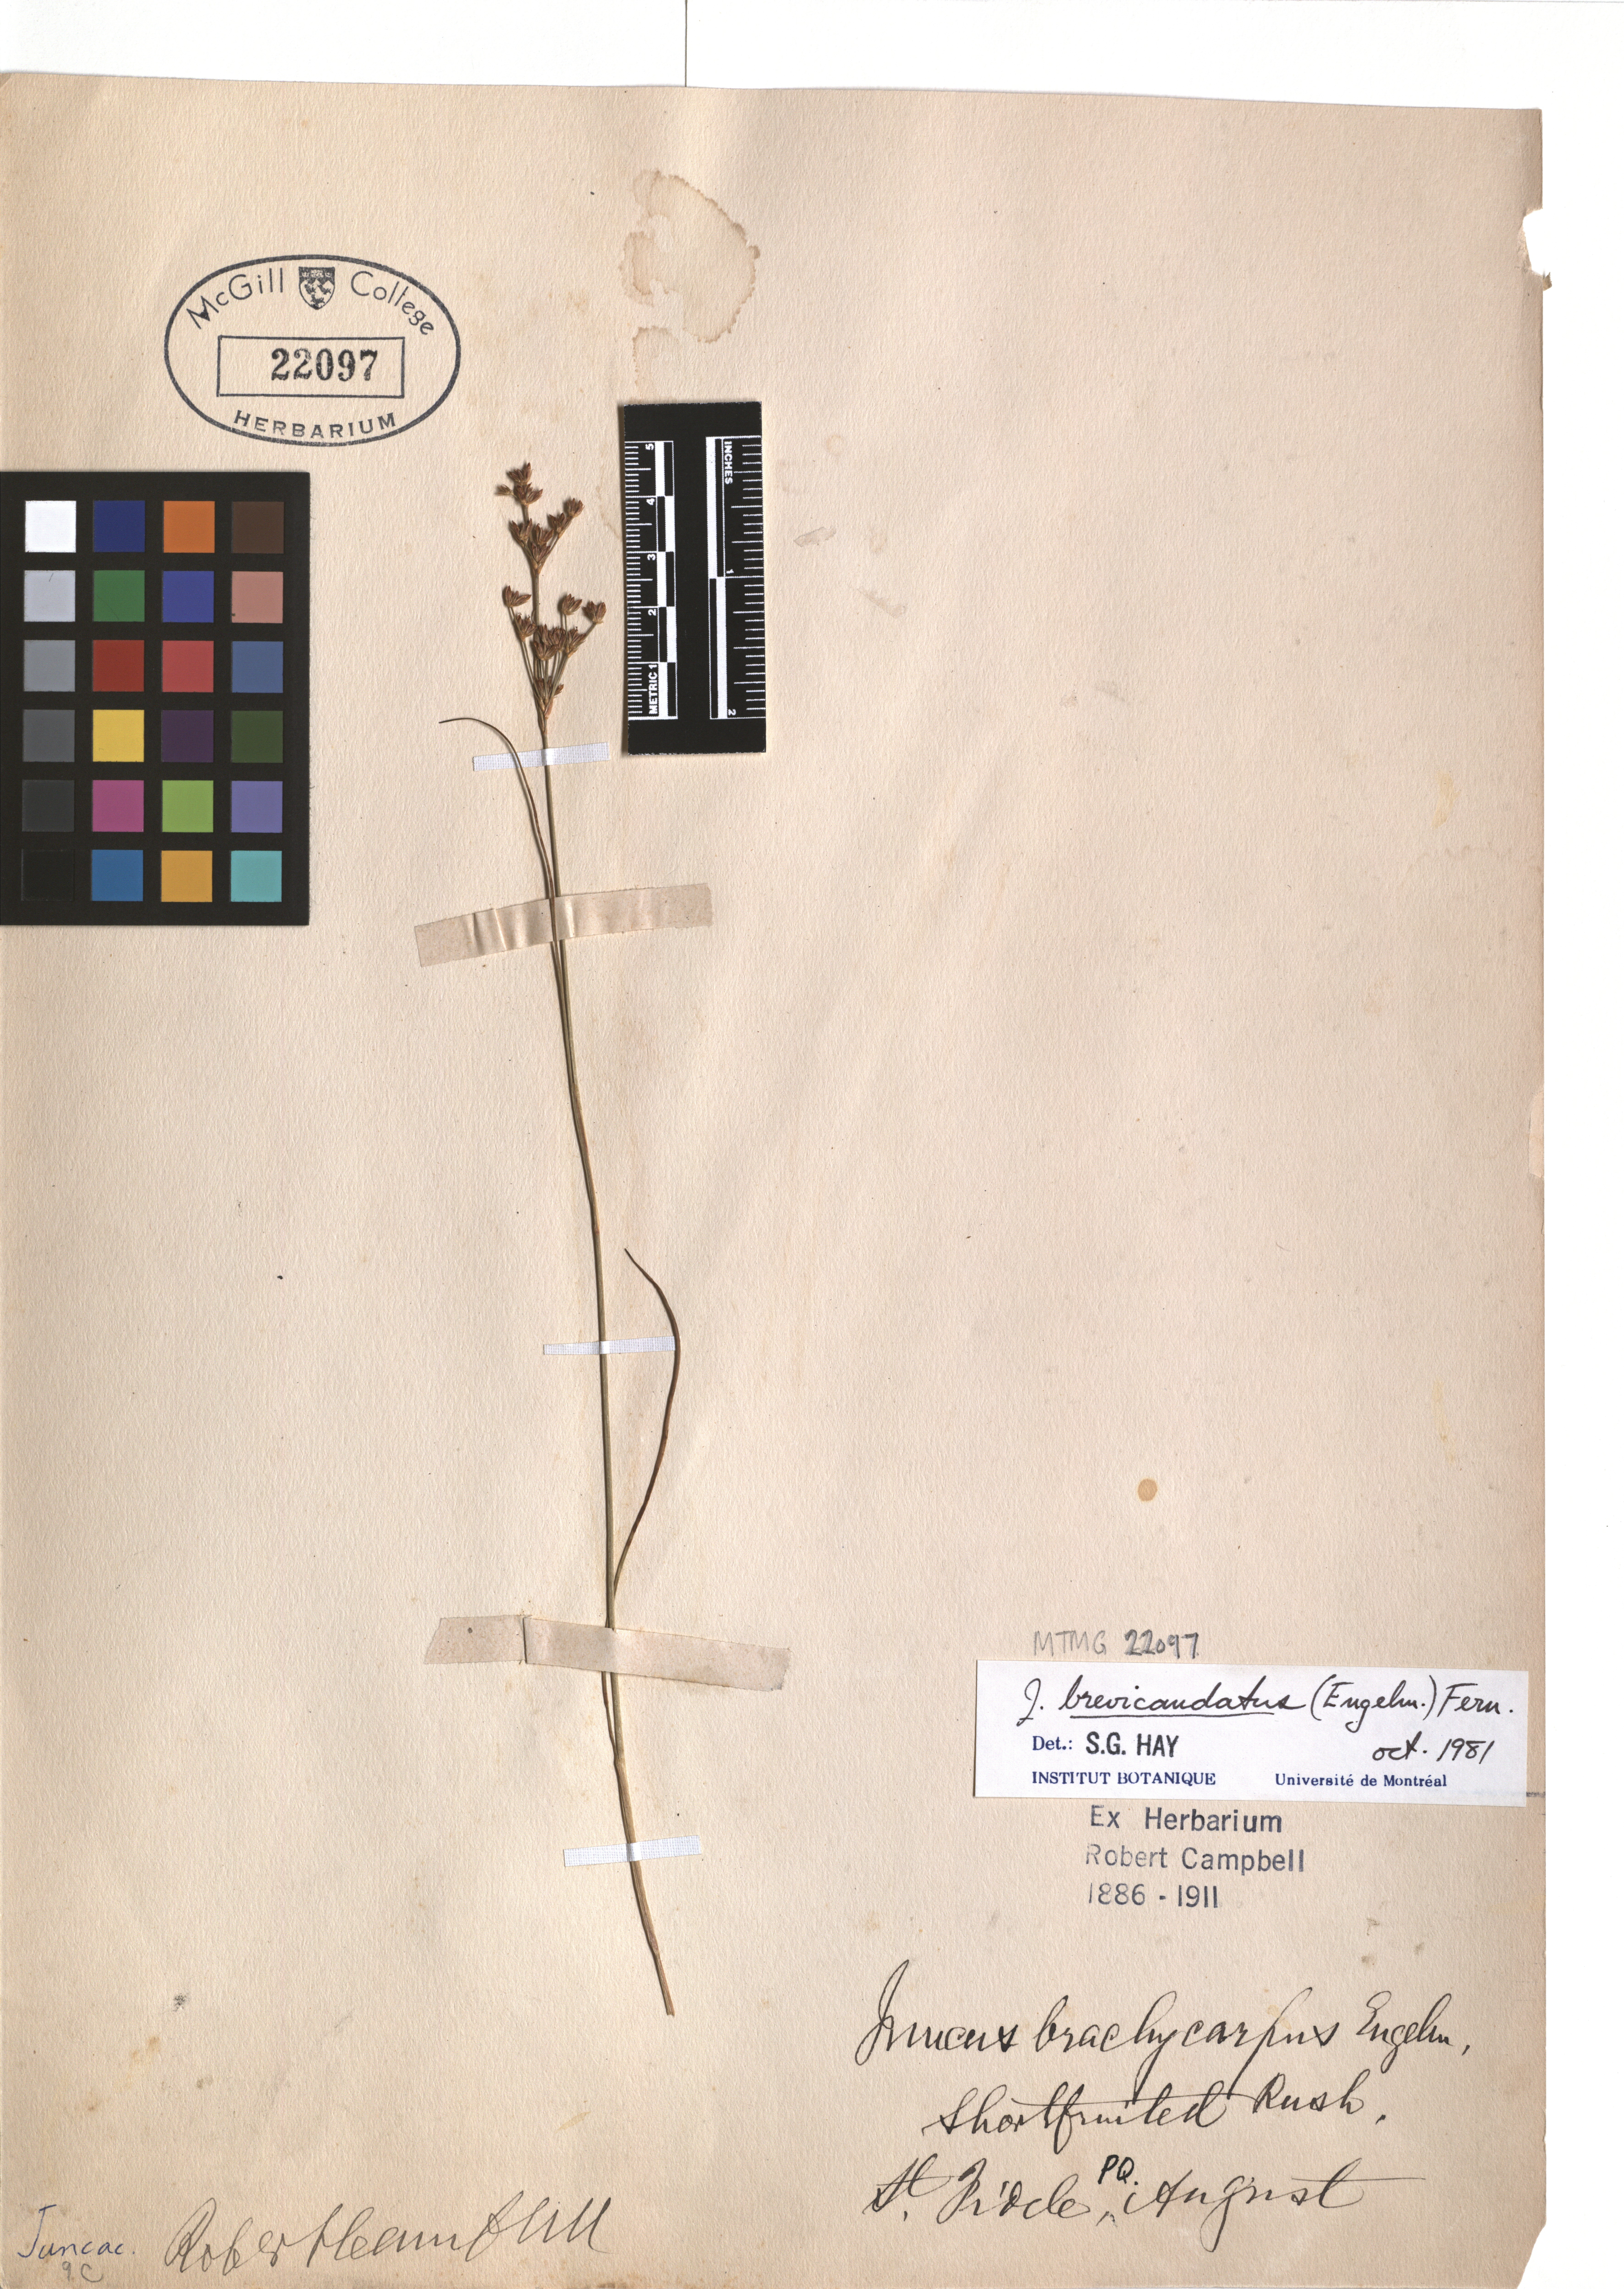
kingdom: Plantae
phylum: Tracheophyta
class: Liliopsida
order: Poales
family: Juncaceae
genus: Juncus
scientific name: Juncus brevicaudatus
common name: Narrow-panicle rush
